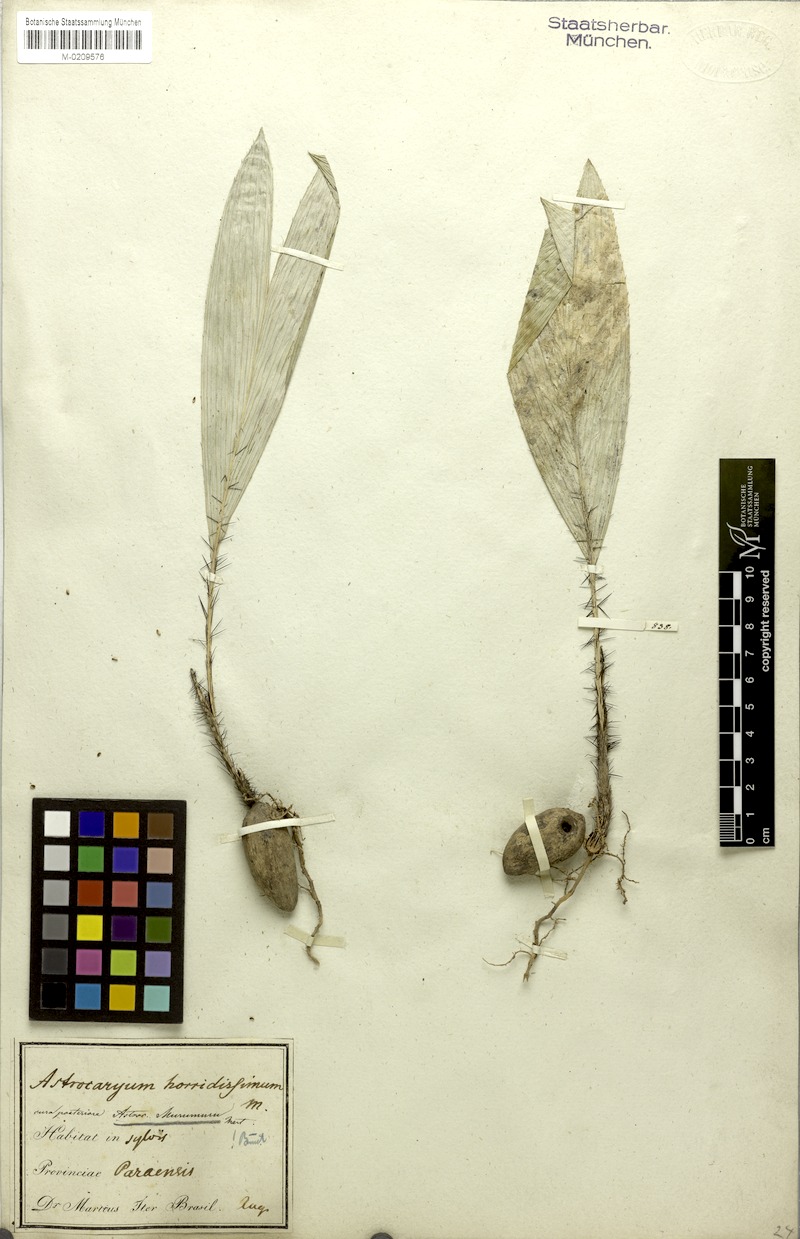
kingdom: Plantae
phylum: Tracheophyta
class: Liliopsida
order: Arecales
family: Arecaceae
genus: Astrocaryum
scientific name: Astrocaryum murumuru
